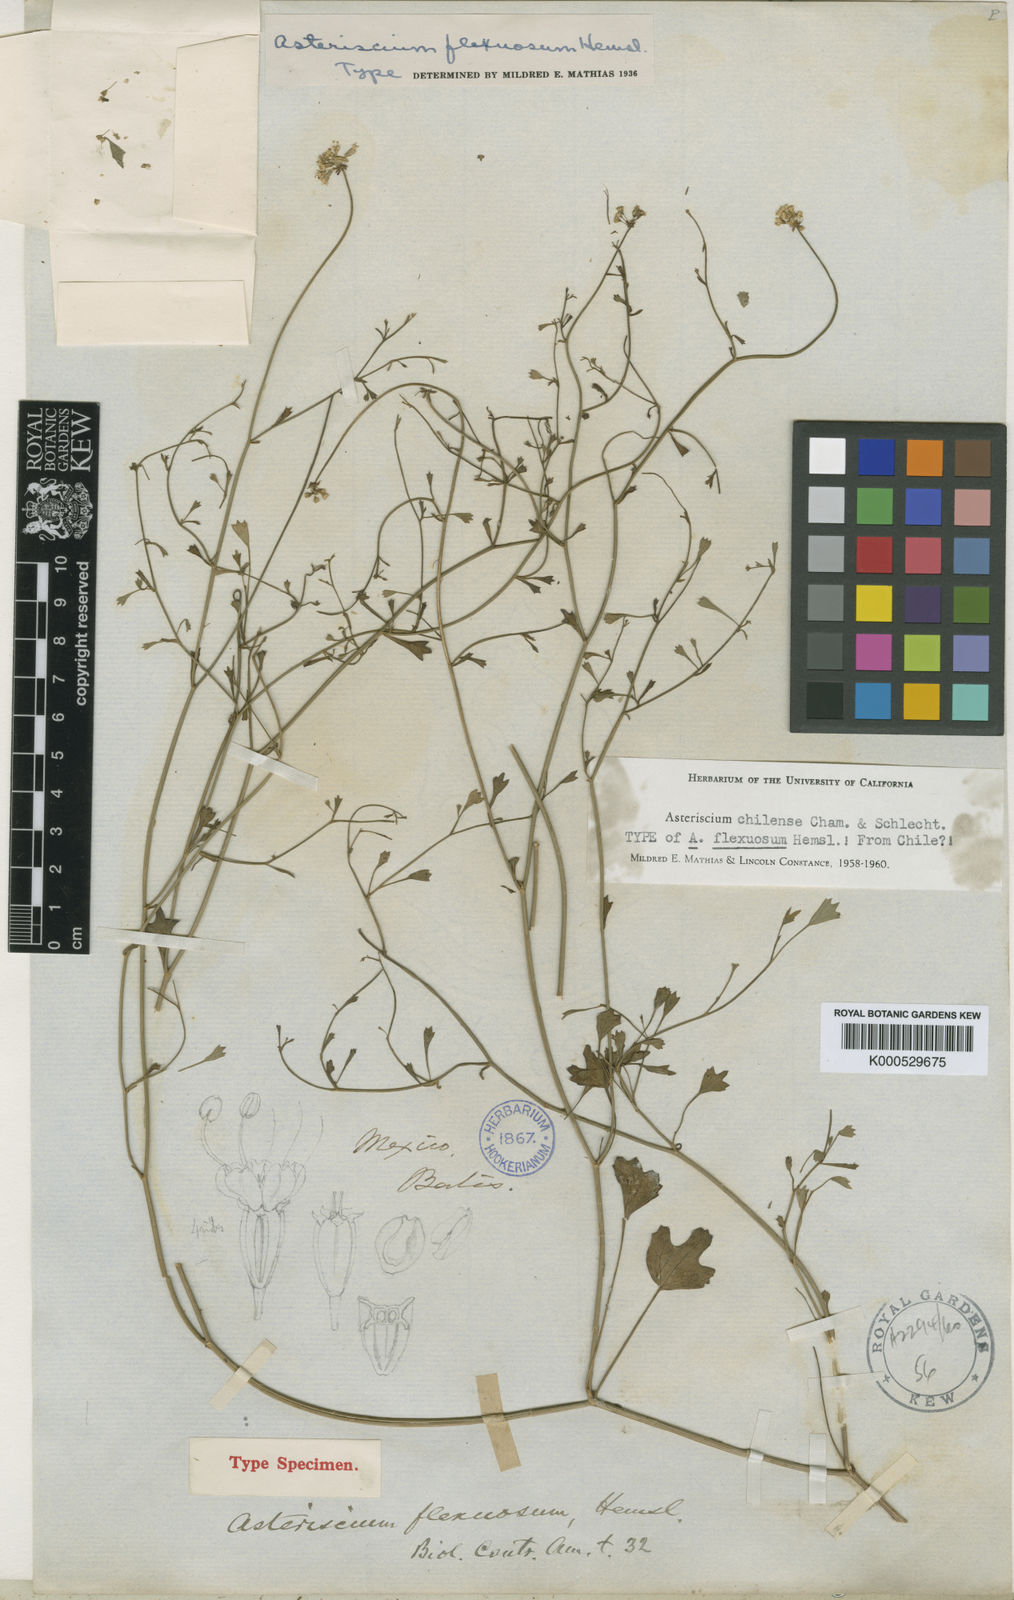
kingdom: Plantae
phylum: Tracheophyta
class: Magnoliopsida
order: Apiales
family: Apiaceae
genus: Asteriscium
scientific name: Asteriscium chilense
